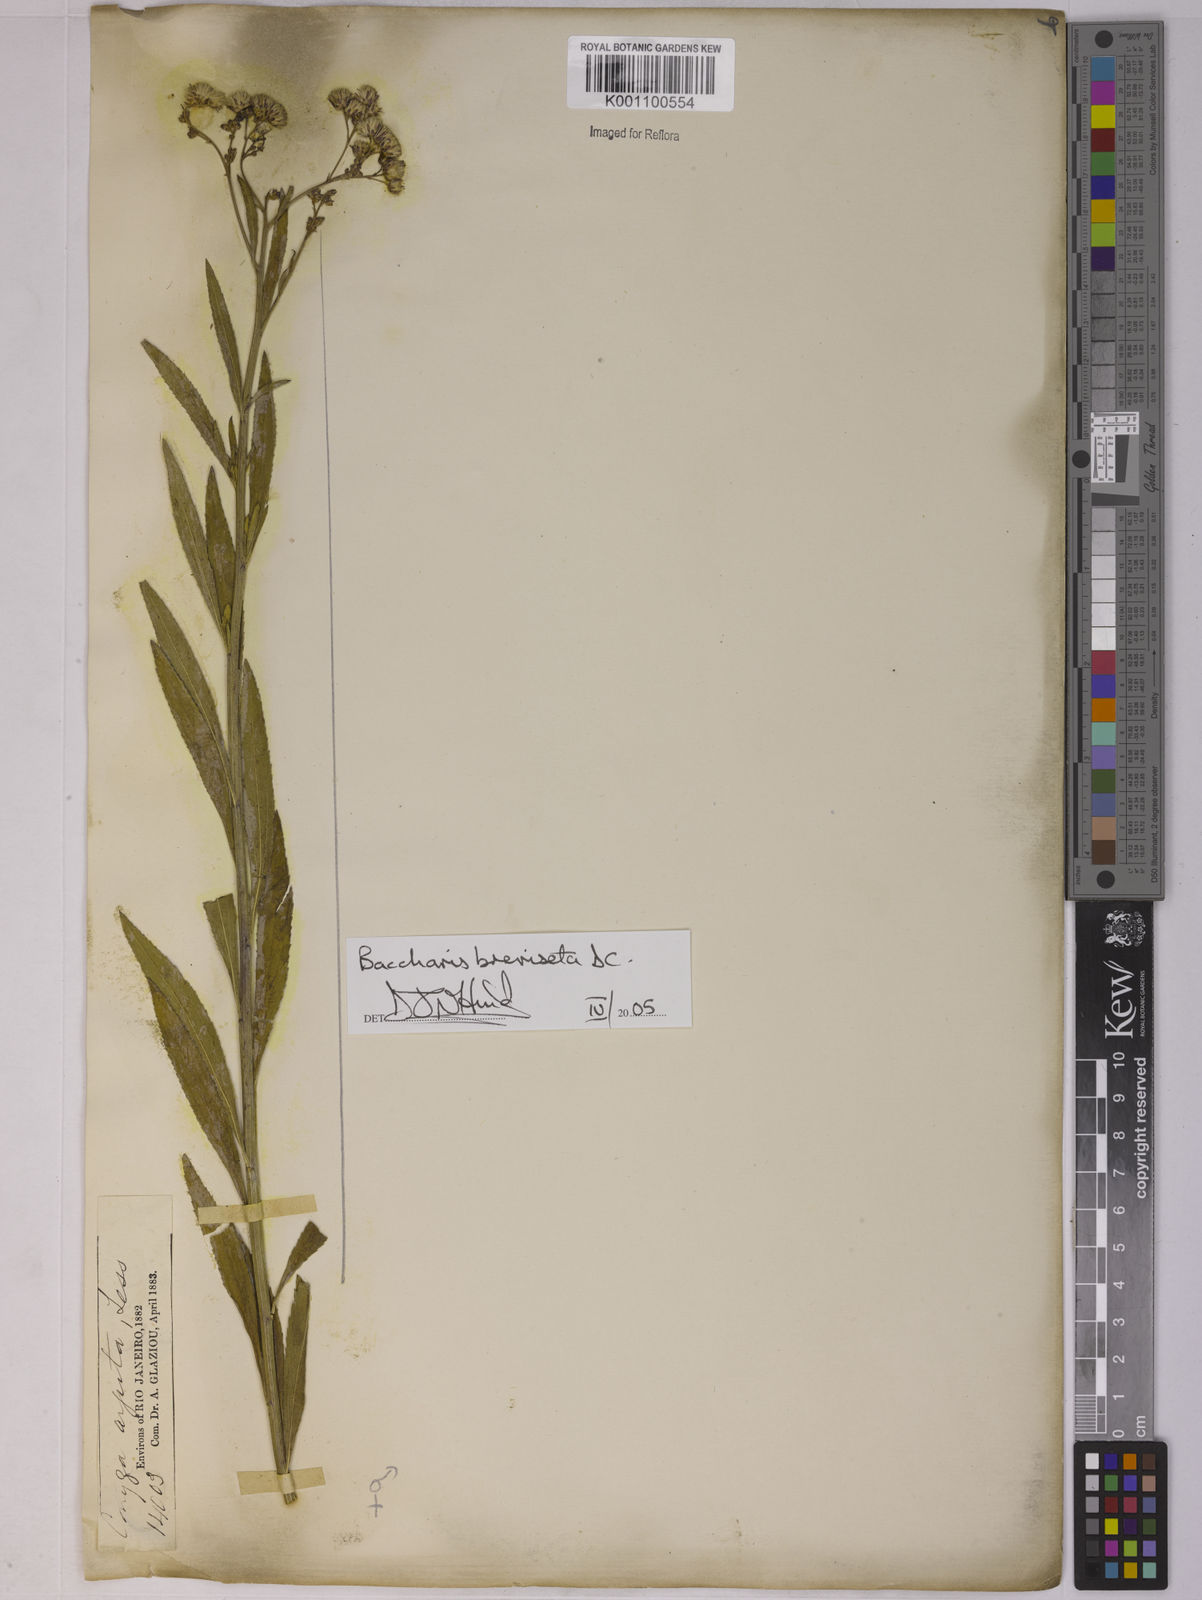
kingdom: Plantae
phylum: Tracheophyta
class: Magnoliopsida
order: Asterales
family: Asteraceae
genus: Baccharis
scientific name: Baccharis breviseta
